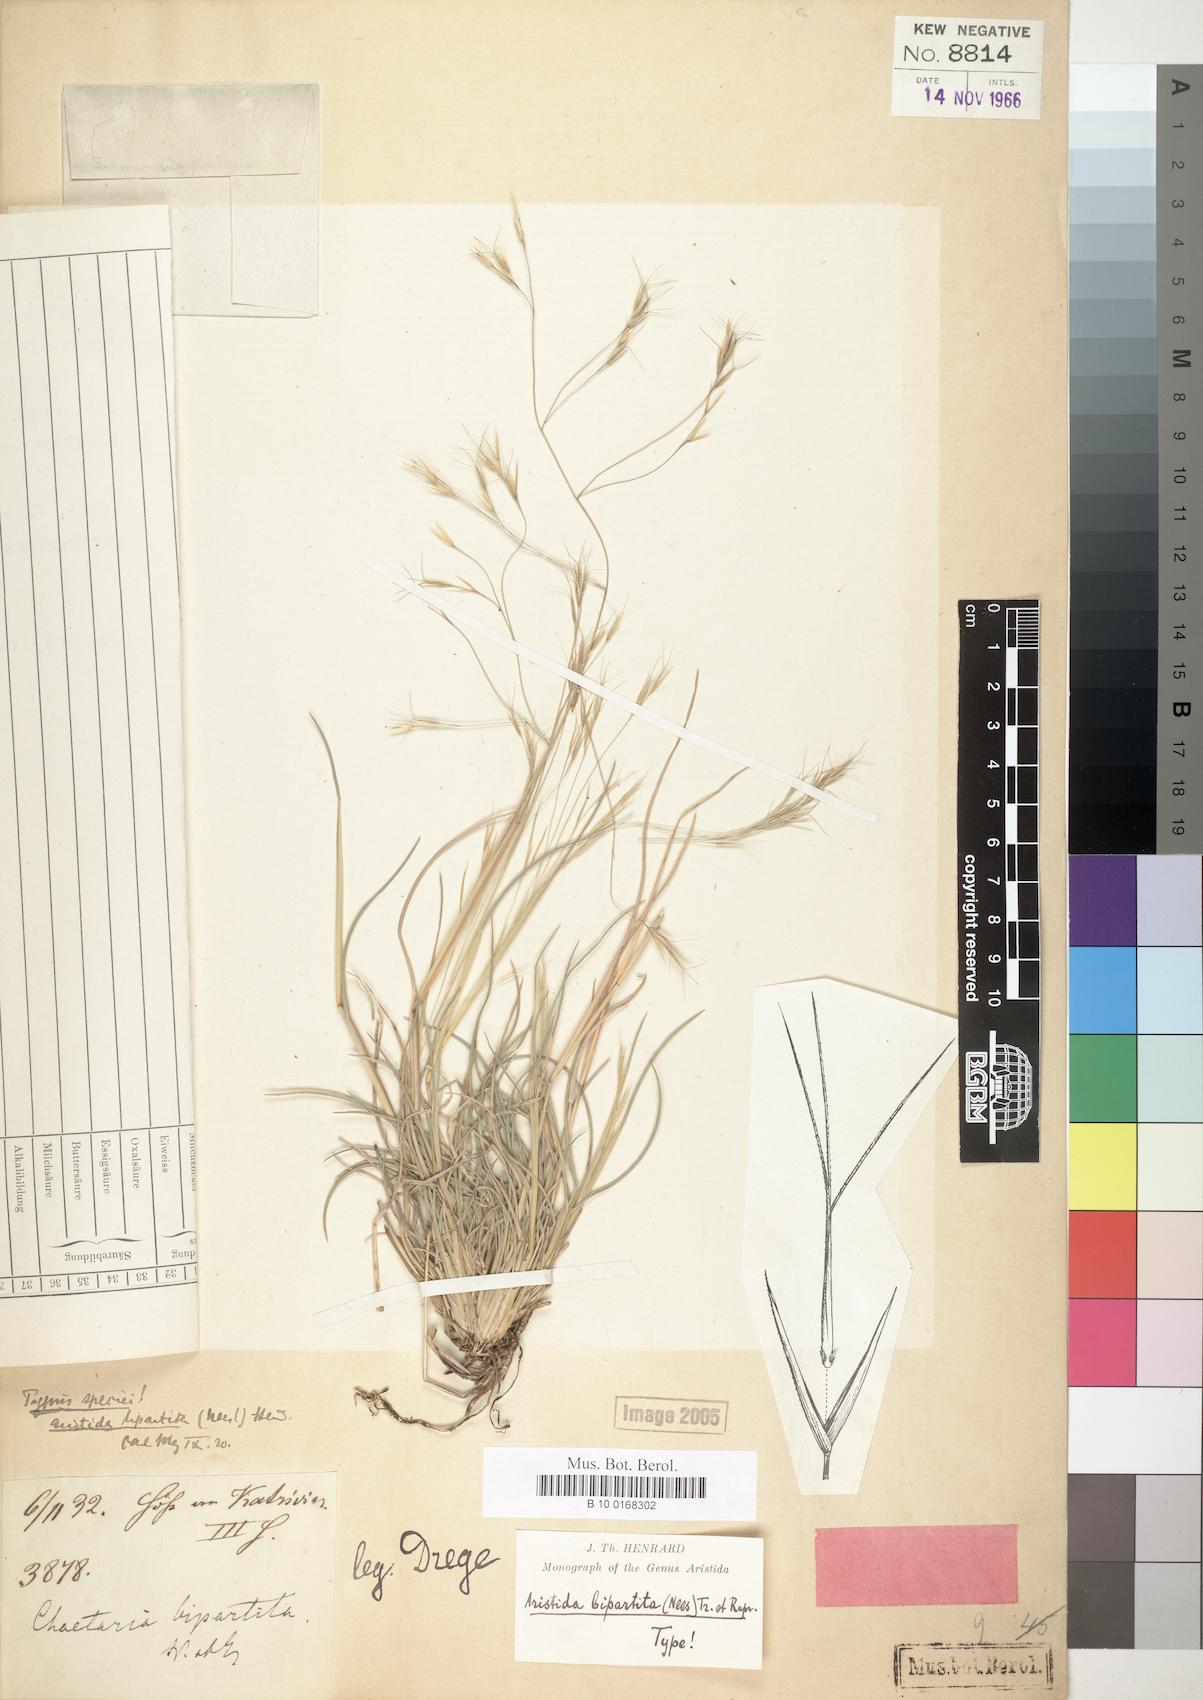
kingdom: Plantae
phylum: Tracheophyta
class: Liliopsida
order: Poales
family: Poaceae
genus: Aristida
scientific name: Aristida bipartita
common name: Three-awn rolling grass
